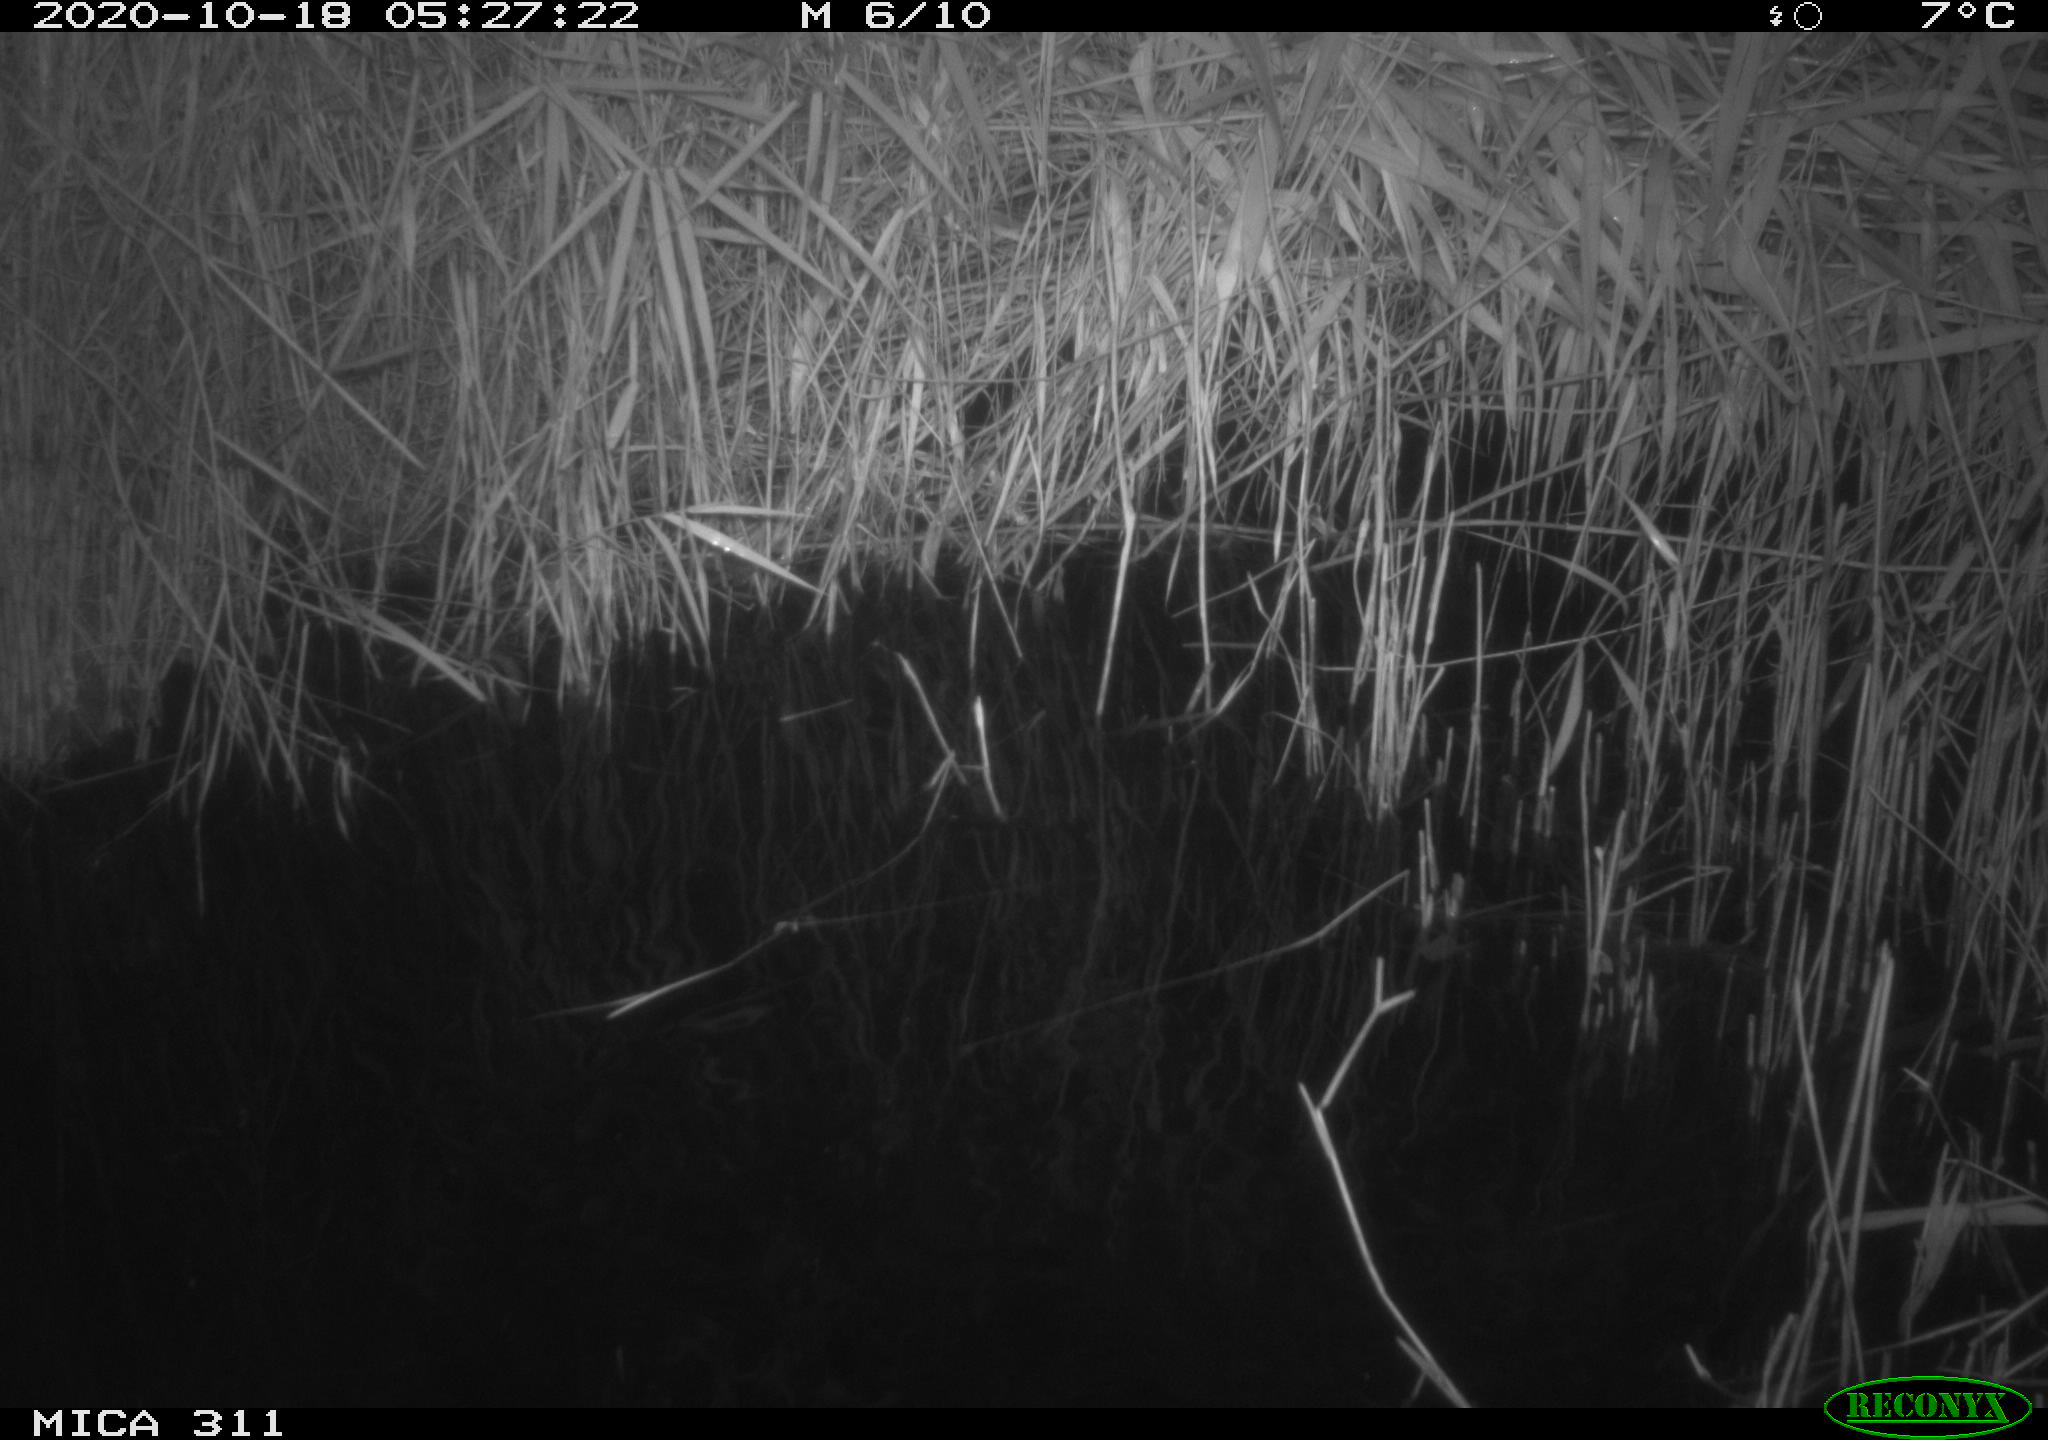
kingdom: Animalia
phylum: Chordata
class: Mammalia
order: Rodentia
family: Muridae
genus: Rattus
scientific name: Rattus norvegicus
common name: Brown rat
